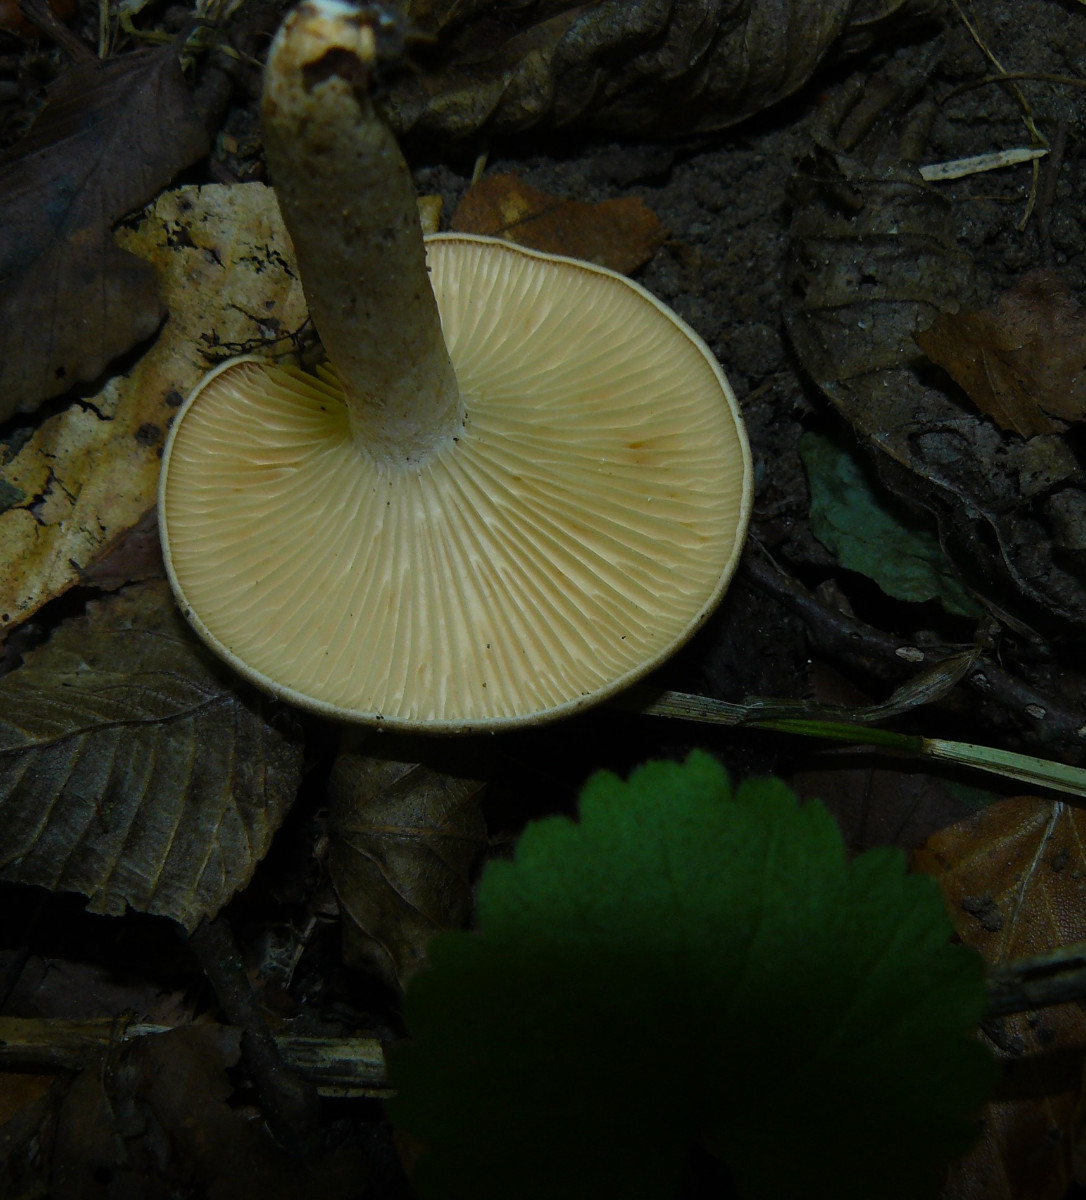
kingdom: Fungi
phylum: Basidiomycota
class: Agaricomycetes
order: Russulales
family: Russulaceae
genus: Lactarius
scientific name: Lactarius pyrogalus
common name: hassel-mælkehat
